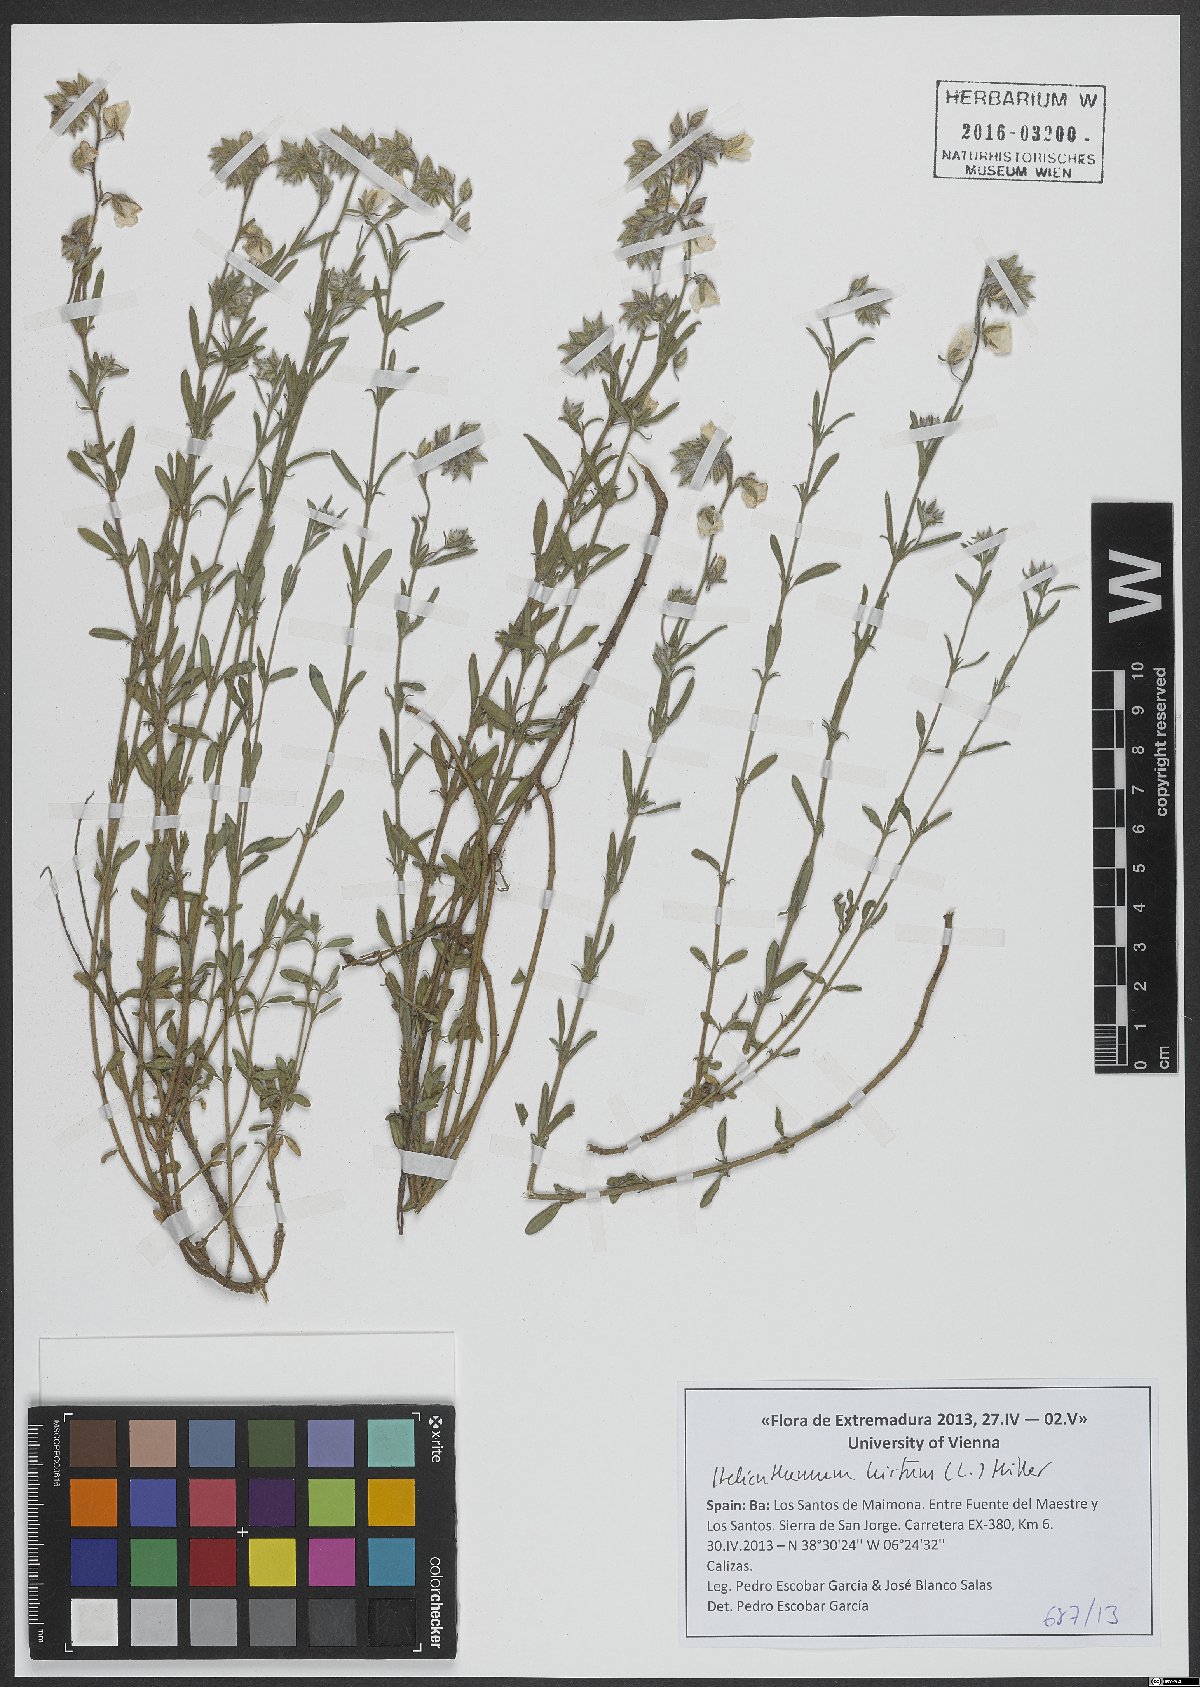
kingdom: Plantae
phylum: Tracheophyta
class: Magnoliopsida
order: Malvales
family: Cistaceae
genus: Helianthemum
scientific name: Helianthemum hirtum
